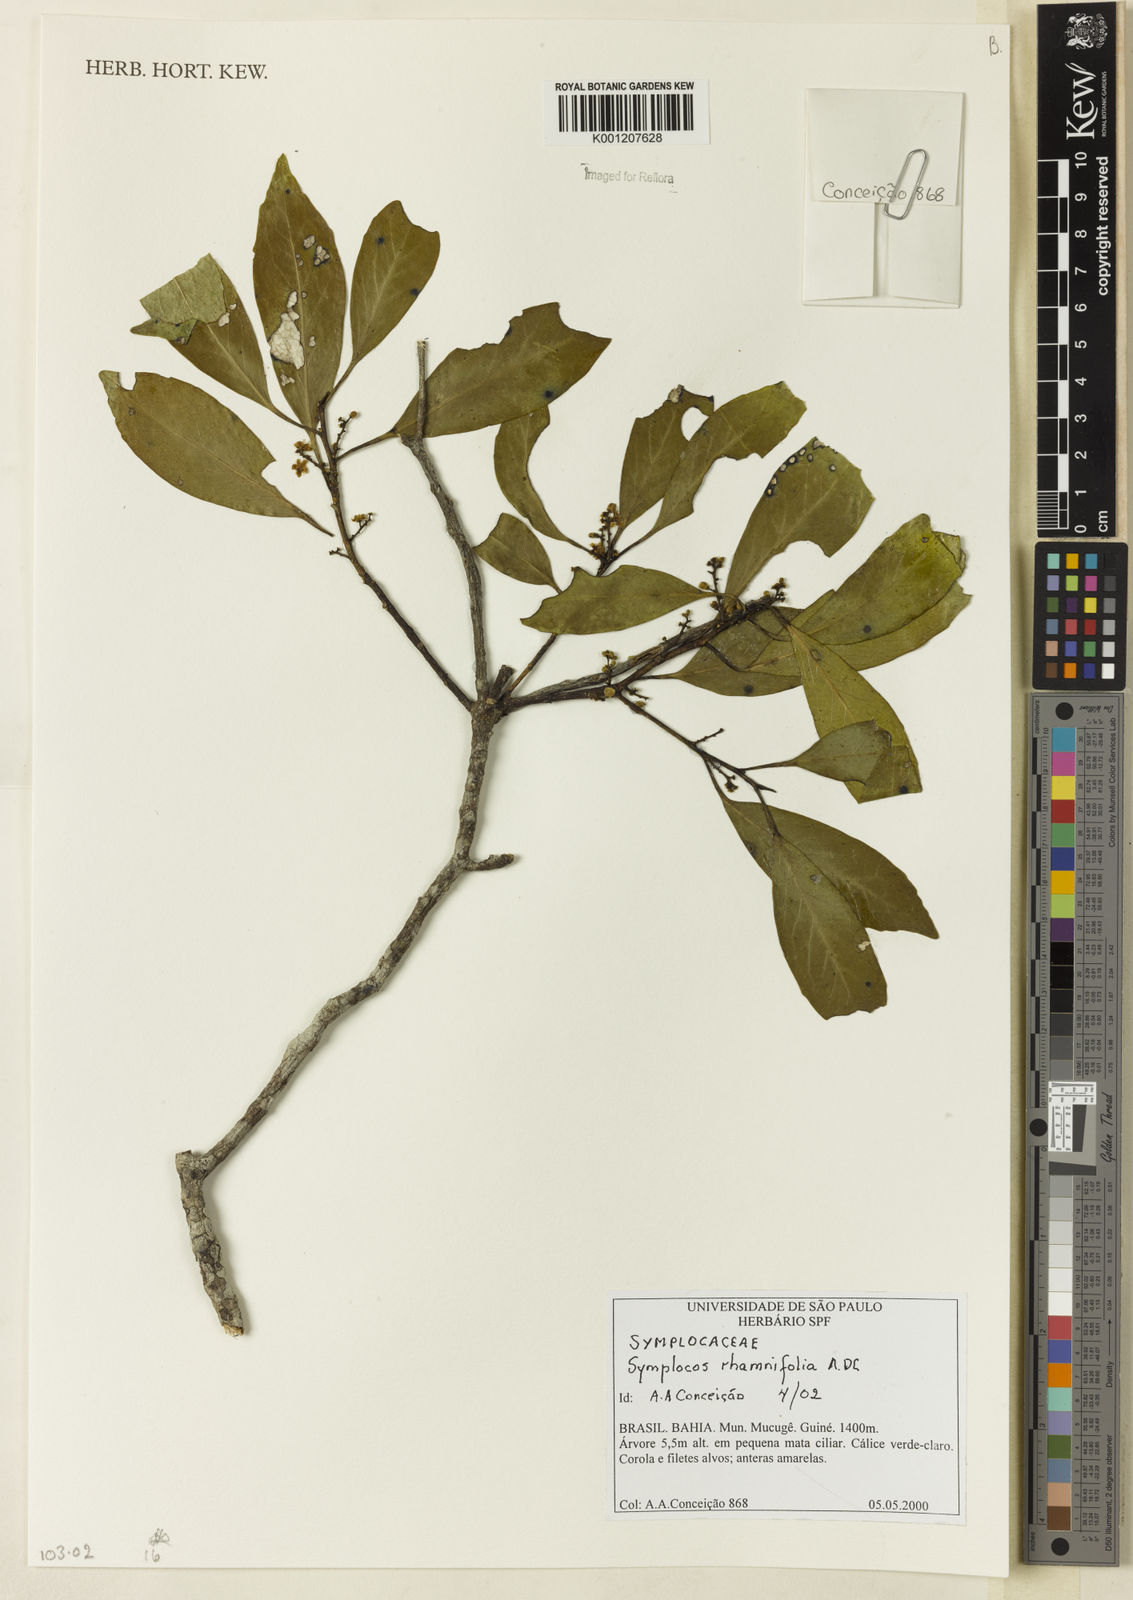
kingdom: Plantae
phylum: Tracheophyta
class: Magnoliopsida
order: Ericales
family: Symplocaceae
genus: Symplocos
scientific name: Symplocos rhamnifolia
